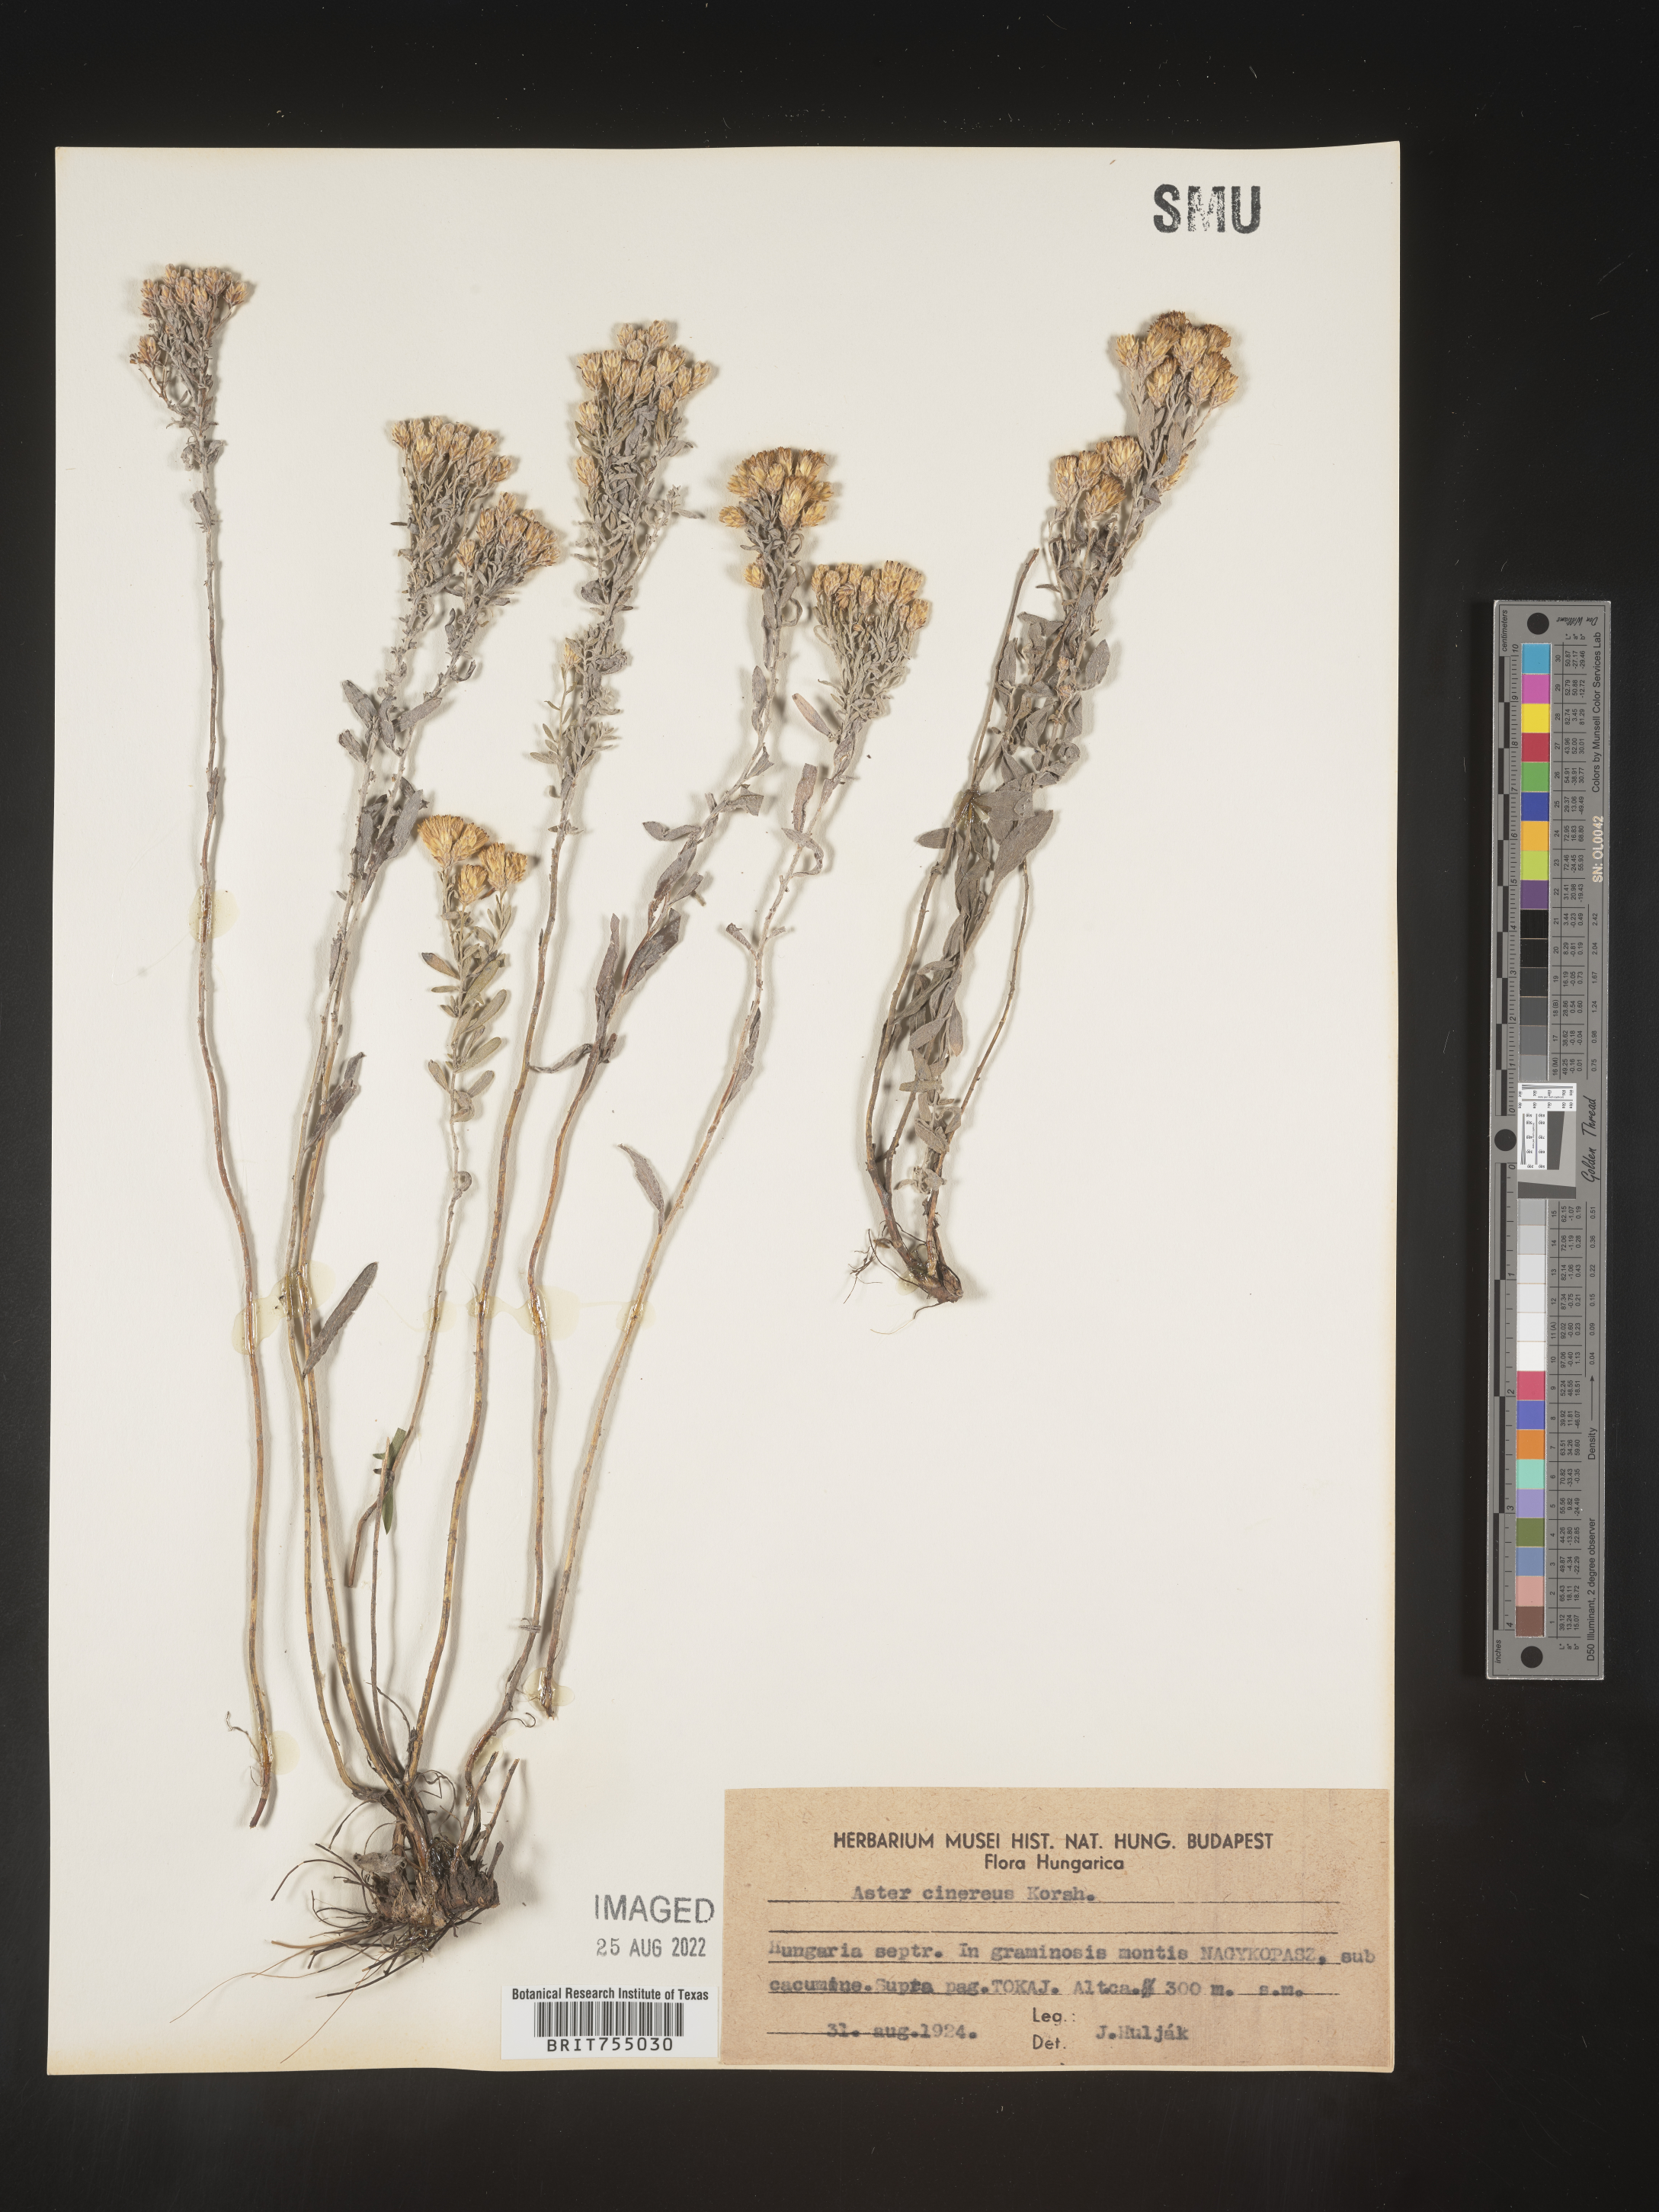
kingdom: Plantae
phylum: Tracheophyta
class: Magnoliopsida
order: Asterales
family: Asteraceae
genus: Symphyotrichum
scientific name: Symphyotrichum
